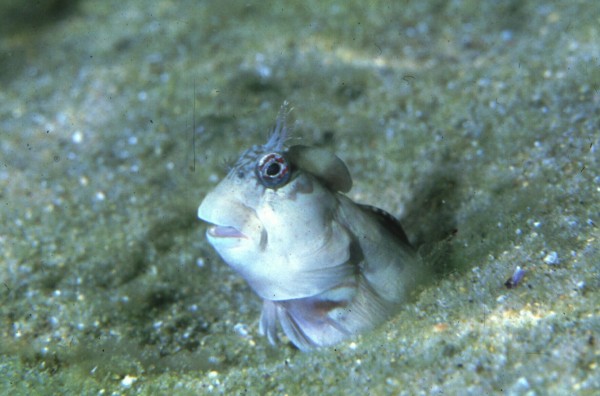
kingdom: Animalia
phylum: Chordata
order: Perciformes
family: Blenniidae
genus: Istiblennius
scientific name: Istiblennius edentulus
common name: Rippled rockskipper
